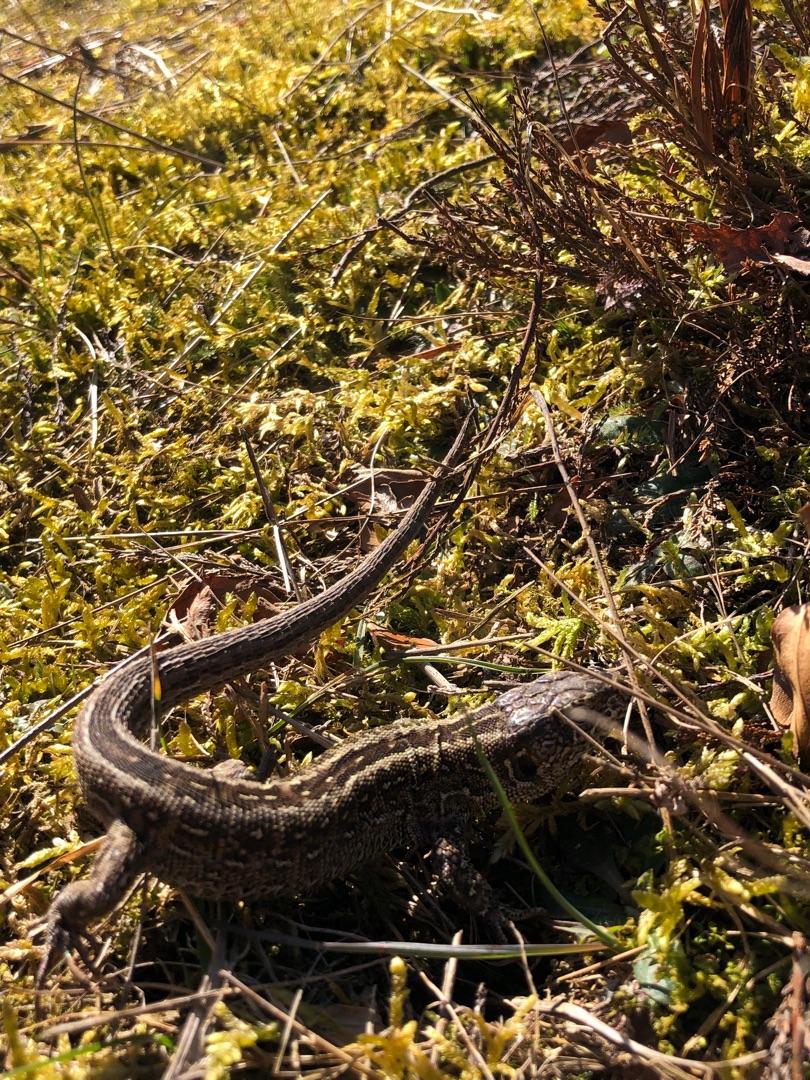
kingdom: Animalia
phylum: Chordata
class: Squamata
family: Lacertidae
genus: Lacerta
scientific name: Lacerta agilis
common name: Markfirben
